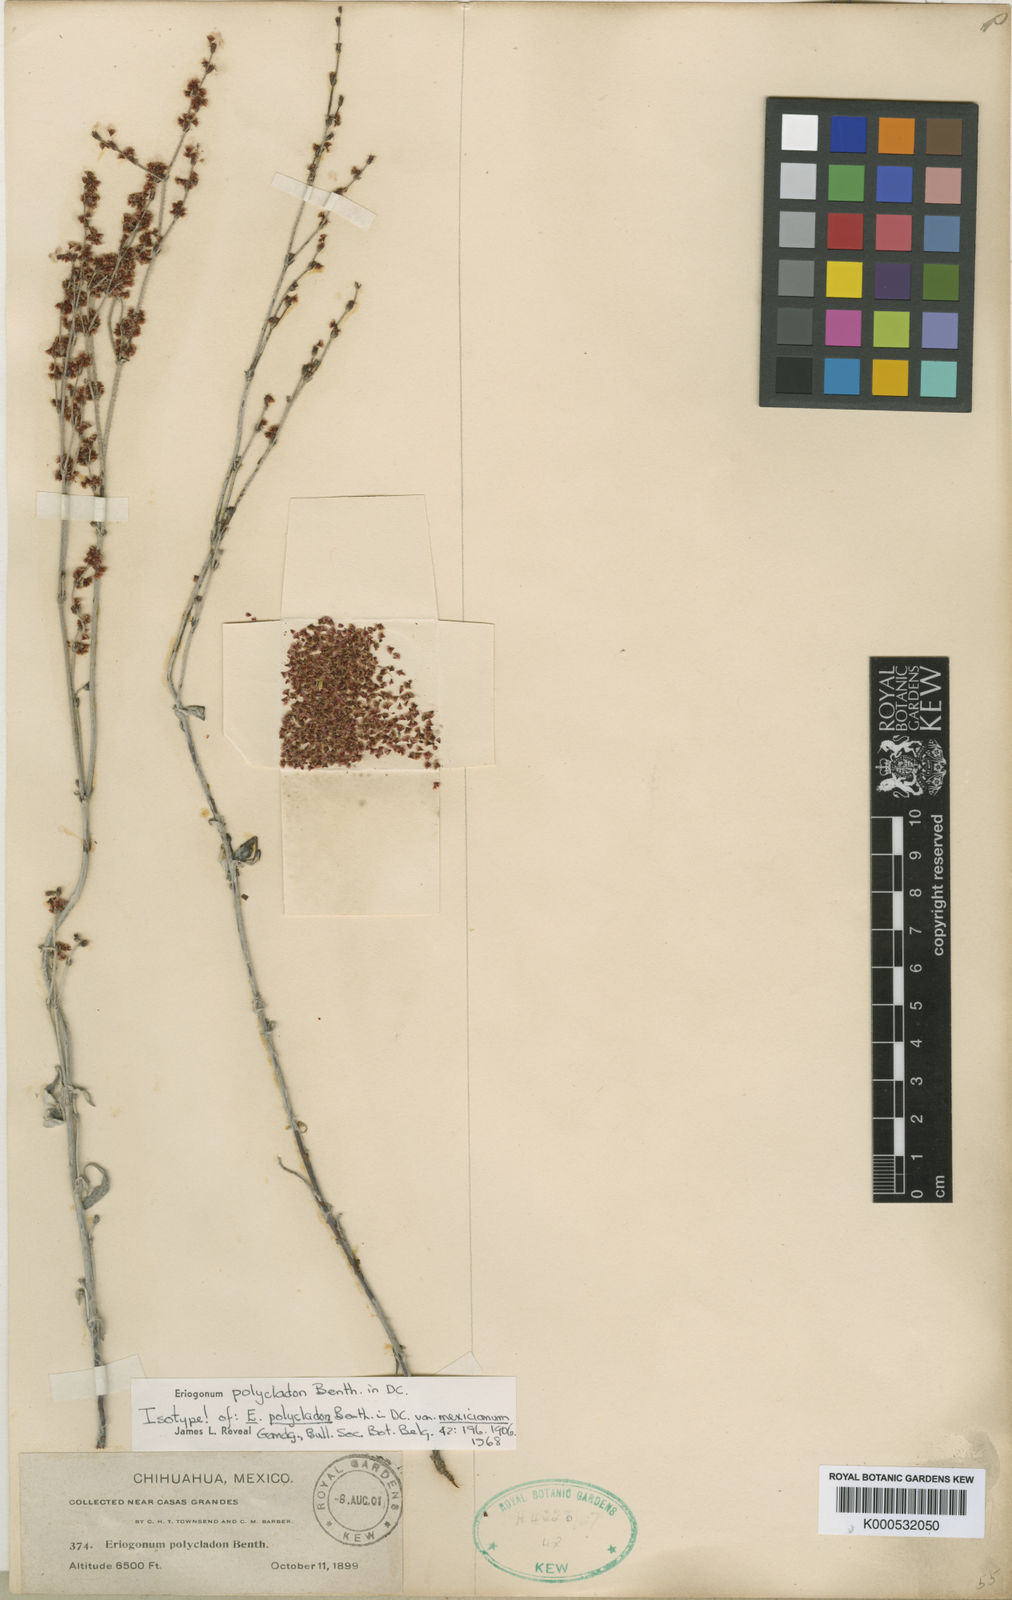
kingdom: Plantae
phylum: Tracheophyta
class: Magnoliopsida
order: Caryophyllales
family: Polygonaceae
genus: Eriogonum
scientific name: Eriogonum polycladon
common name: Sorrel wild buckwheat
